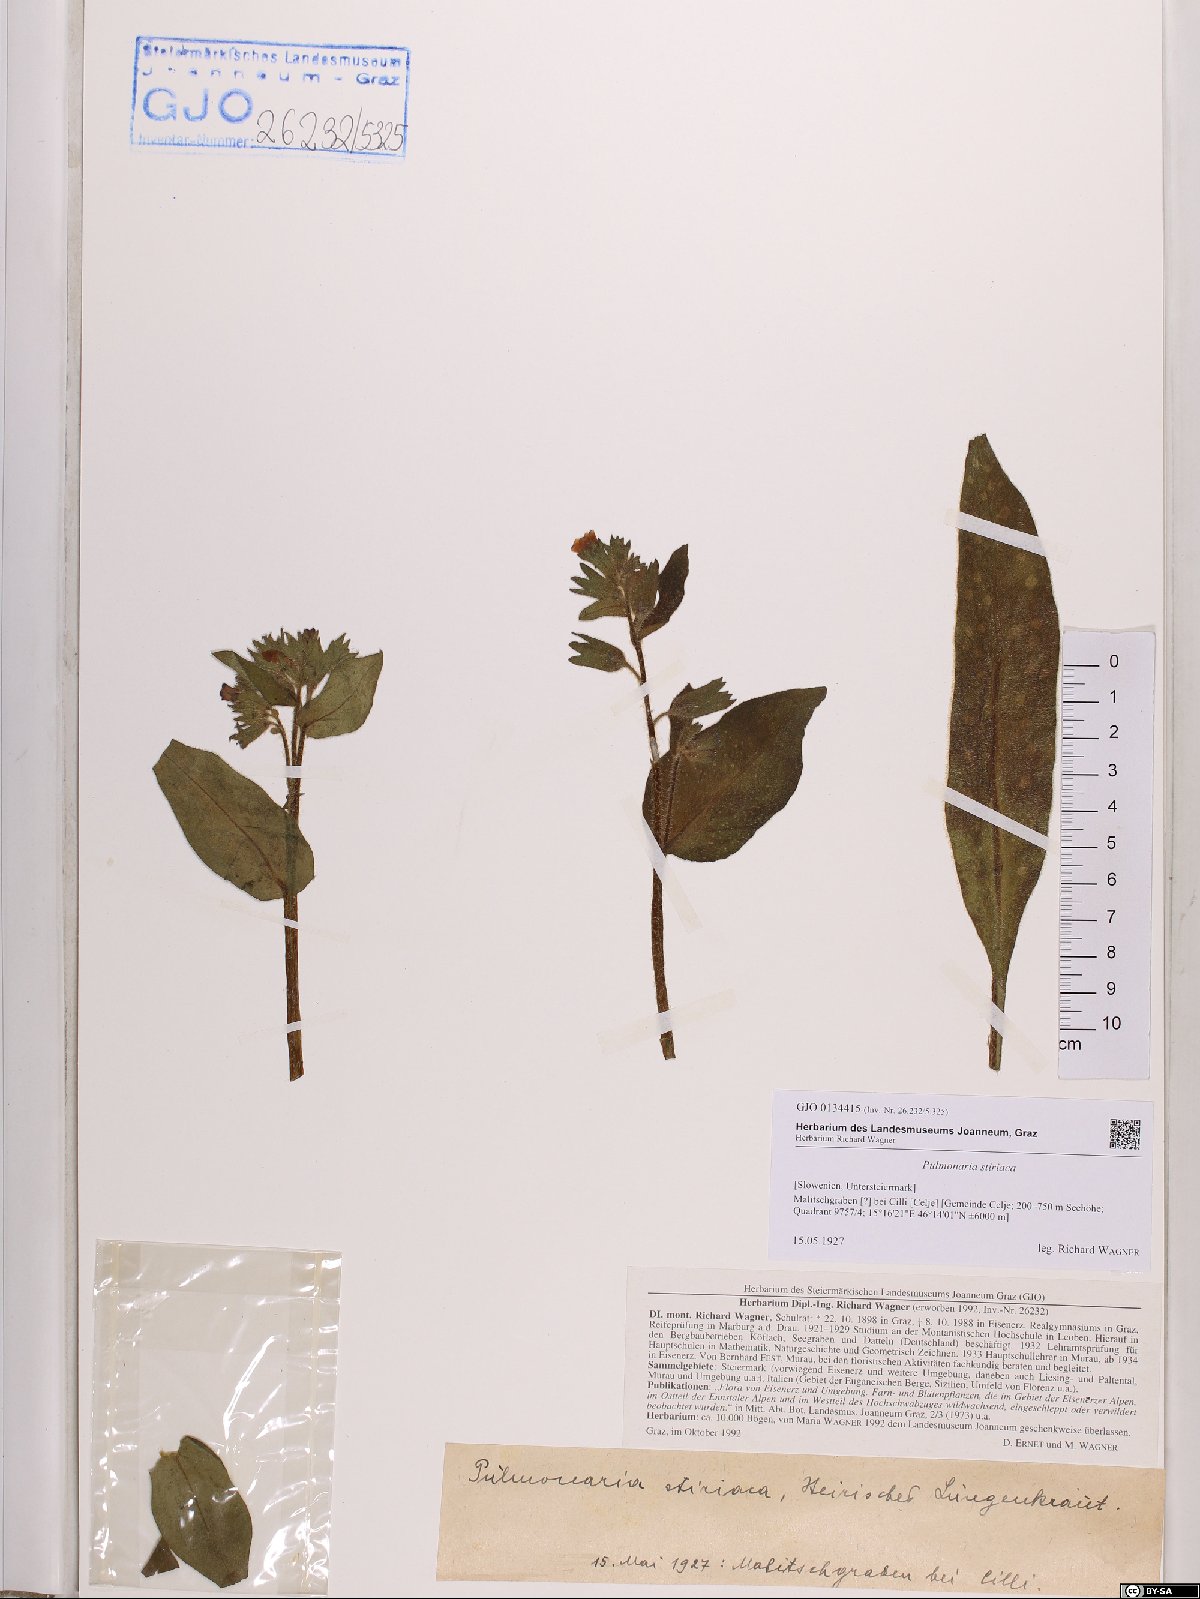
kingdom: Plantae
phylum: Tracheophyta
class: Magnoliopsida
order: Boraginales
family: Boraginaceae
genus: Pulmonaria
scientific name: Pulmonaria stiriaca
